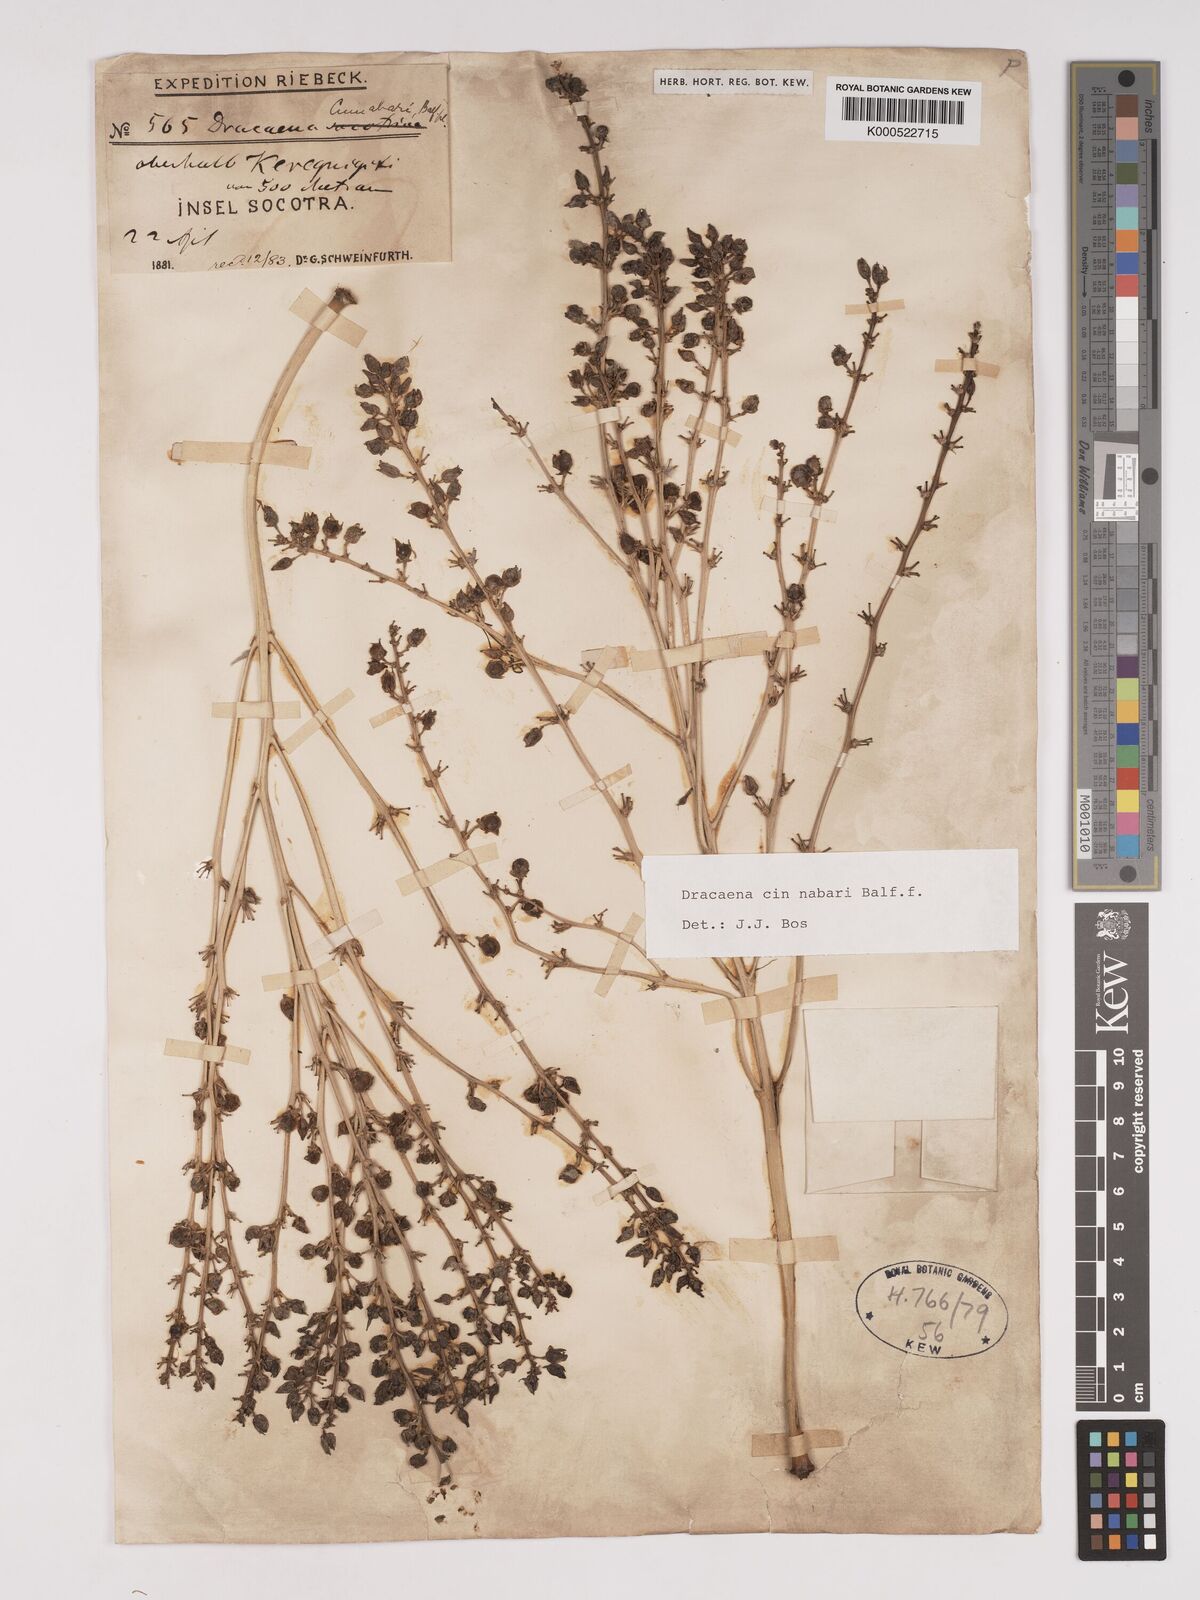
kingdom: Plantae
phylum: Tracheophyta
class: Liliopsida
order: Asparagales
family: Asparagaceae
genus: Dracaena
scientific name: Dracaena cinnabari
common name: Dragon's blood tree
